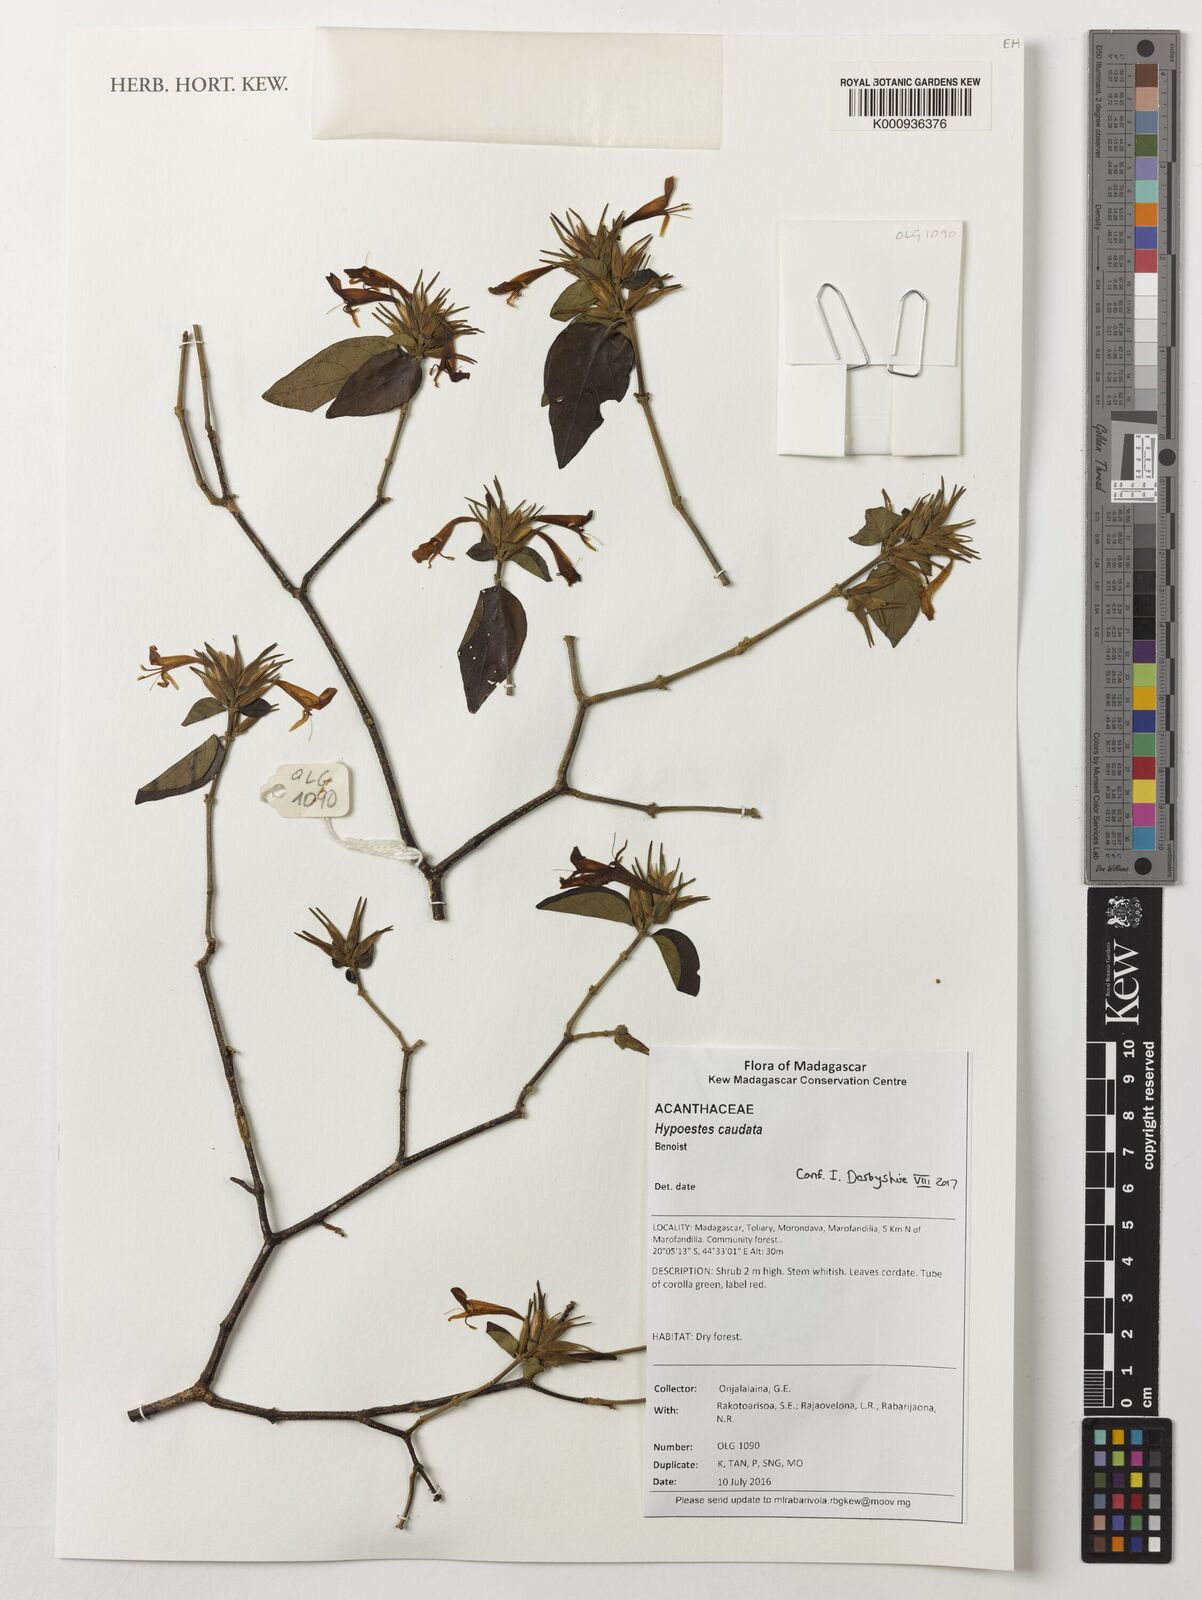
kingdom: Plantae
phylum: Tracheophyta
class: Magnoliopsida
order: Lamiales
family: Acanthaceae
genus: Hypoestes
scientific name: Hypoestes caudata
